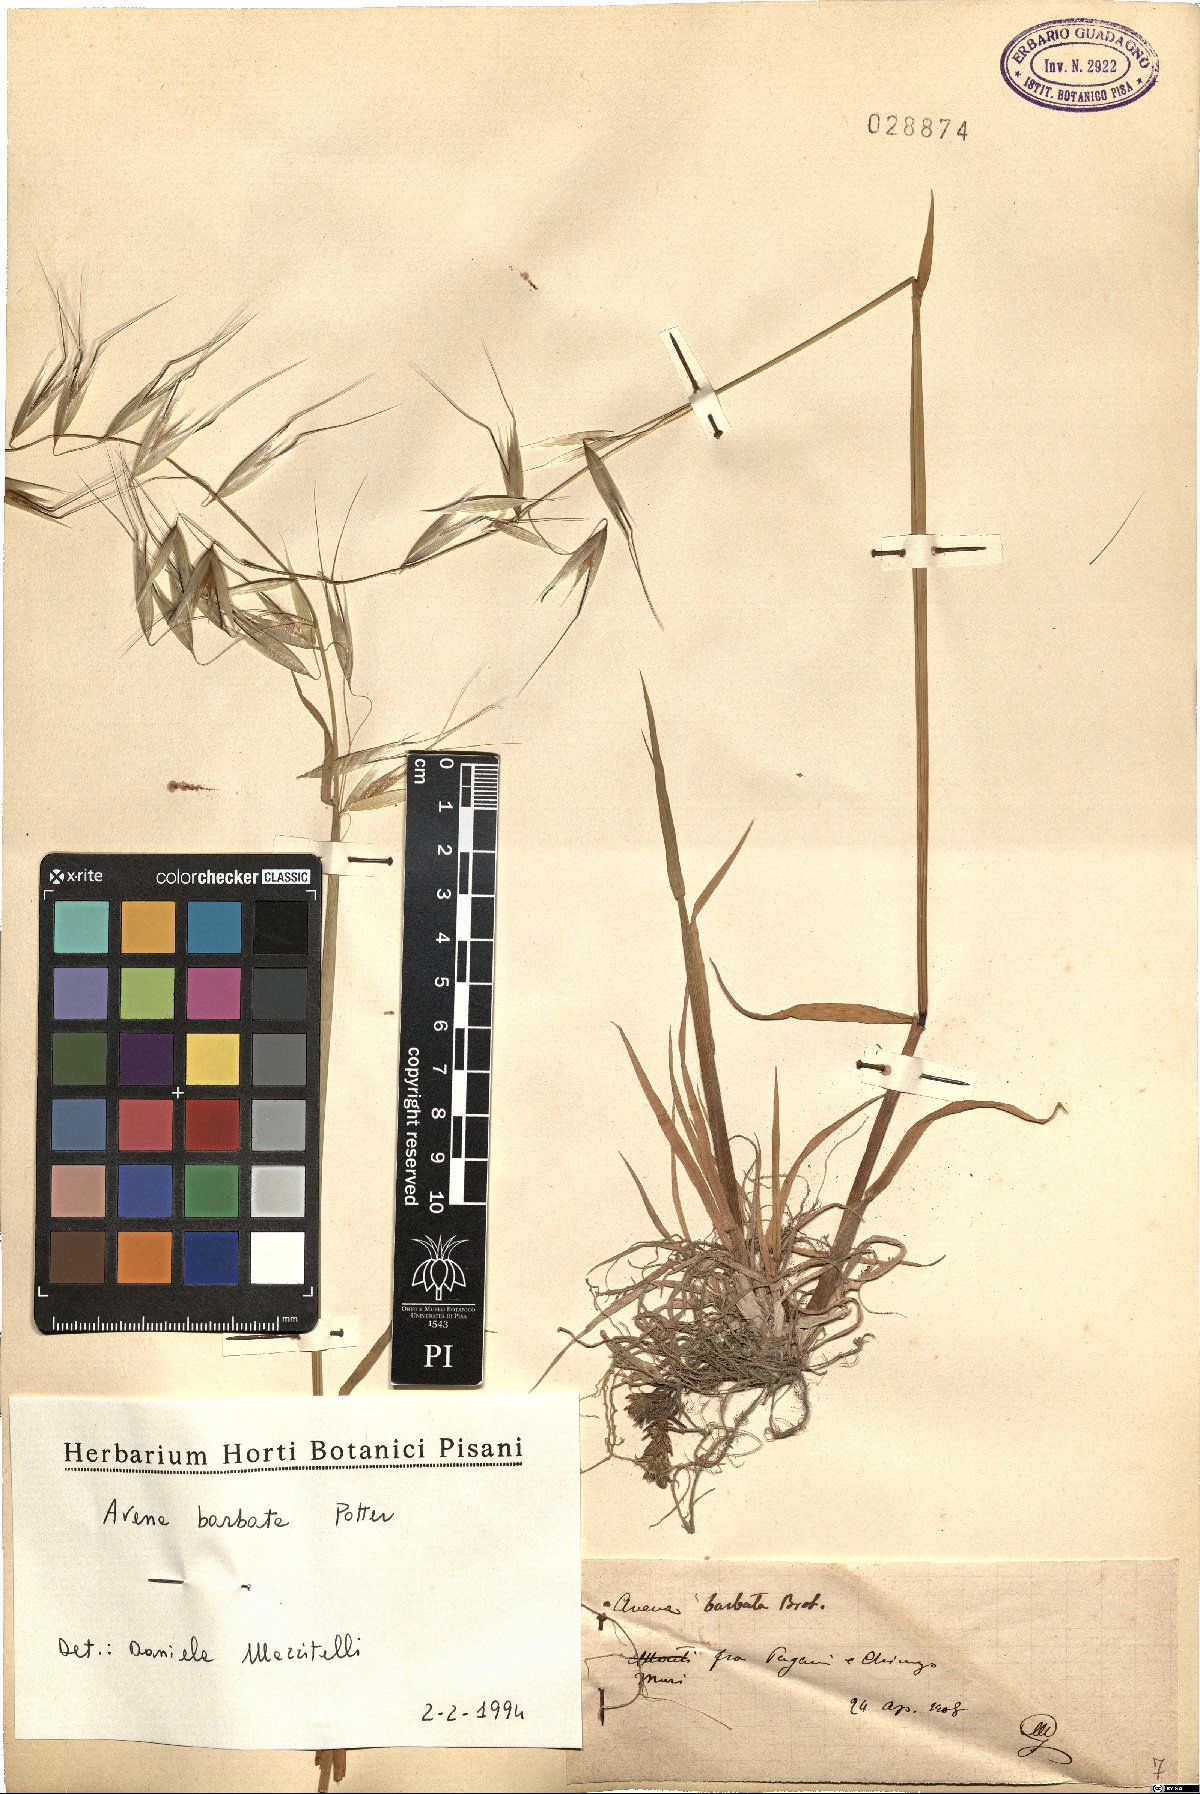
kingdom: Plantae
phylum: Tracheophyta
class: Liliopsida
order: Poales
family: Poaceae
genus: Avena
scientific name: Avena barbata
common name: Slender oat
